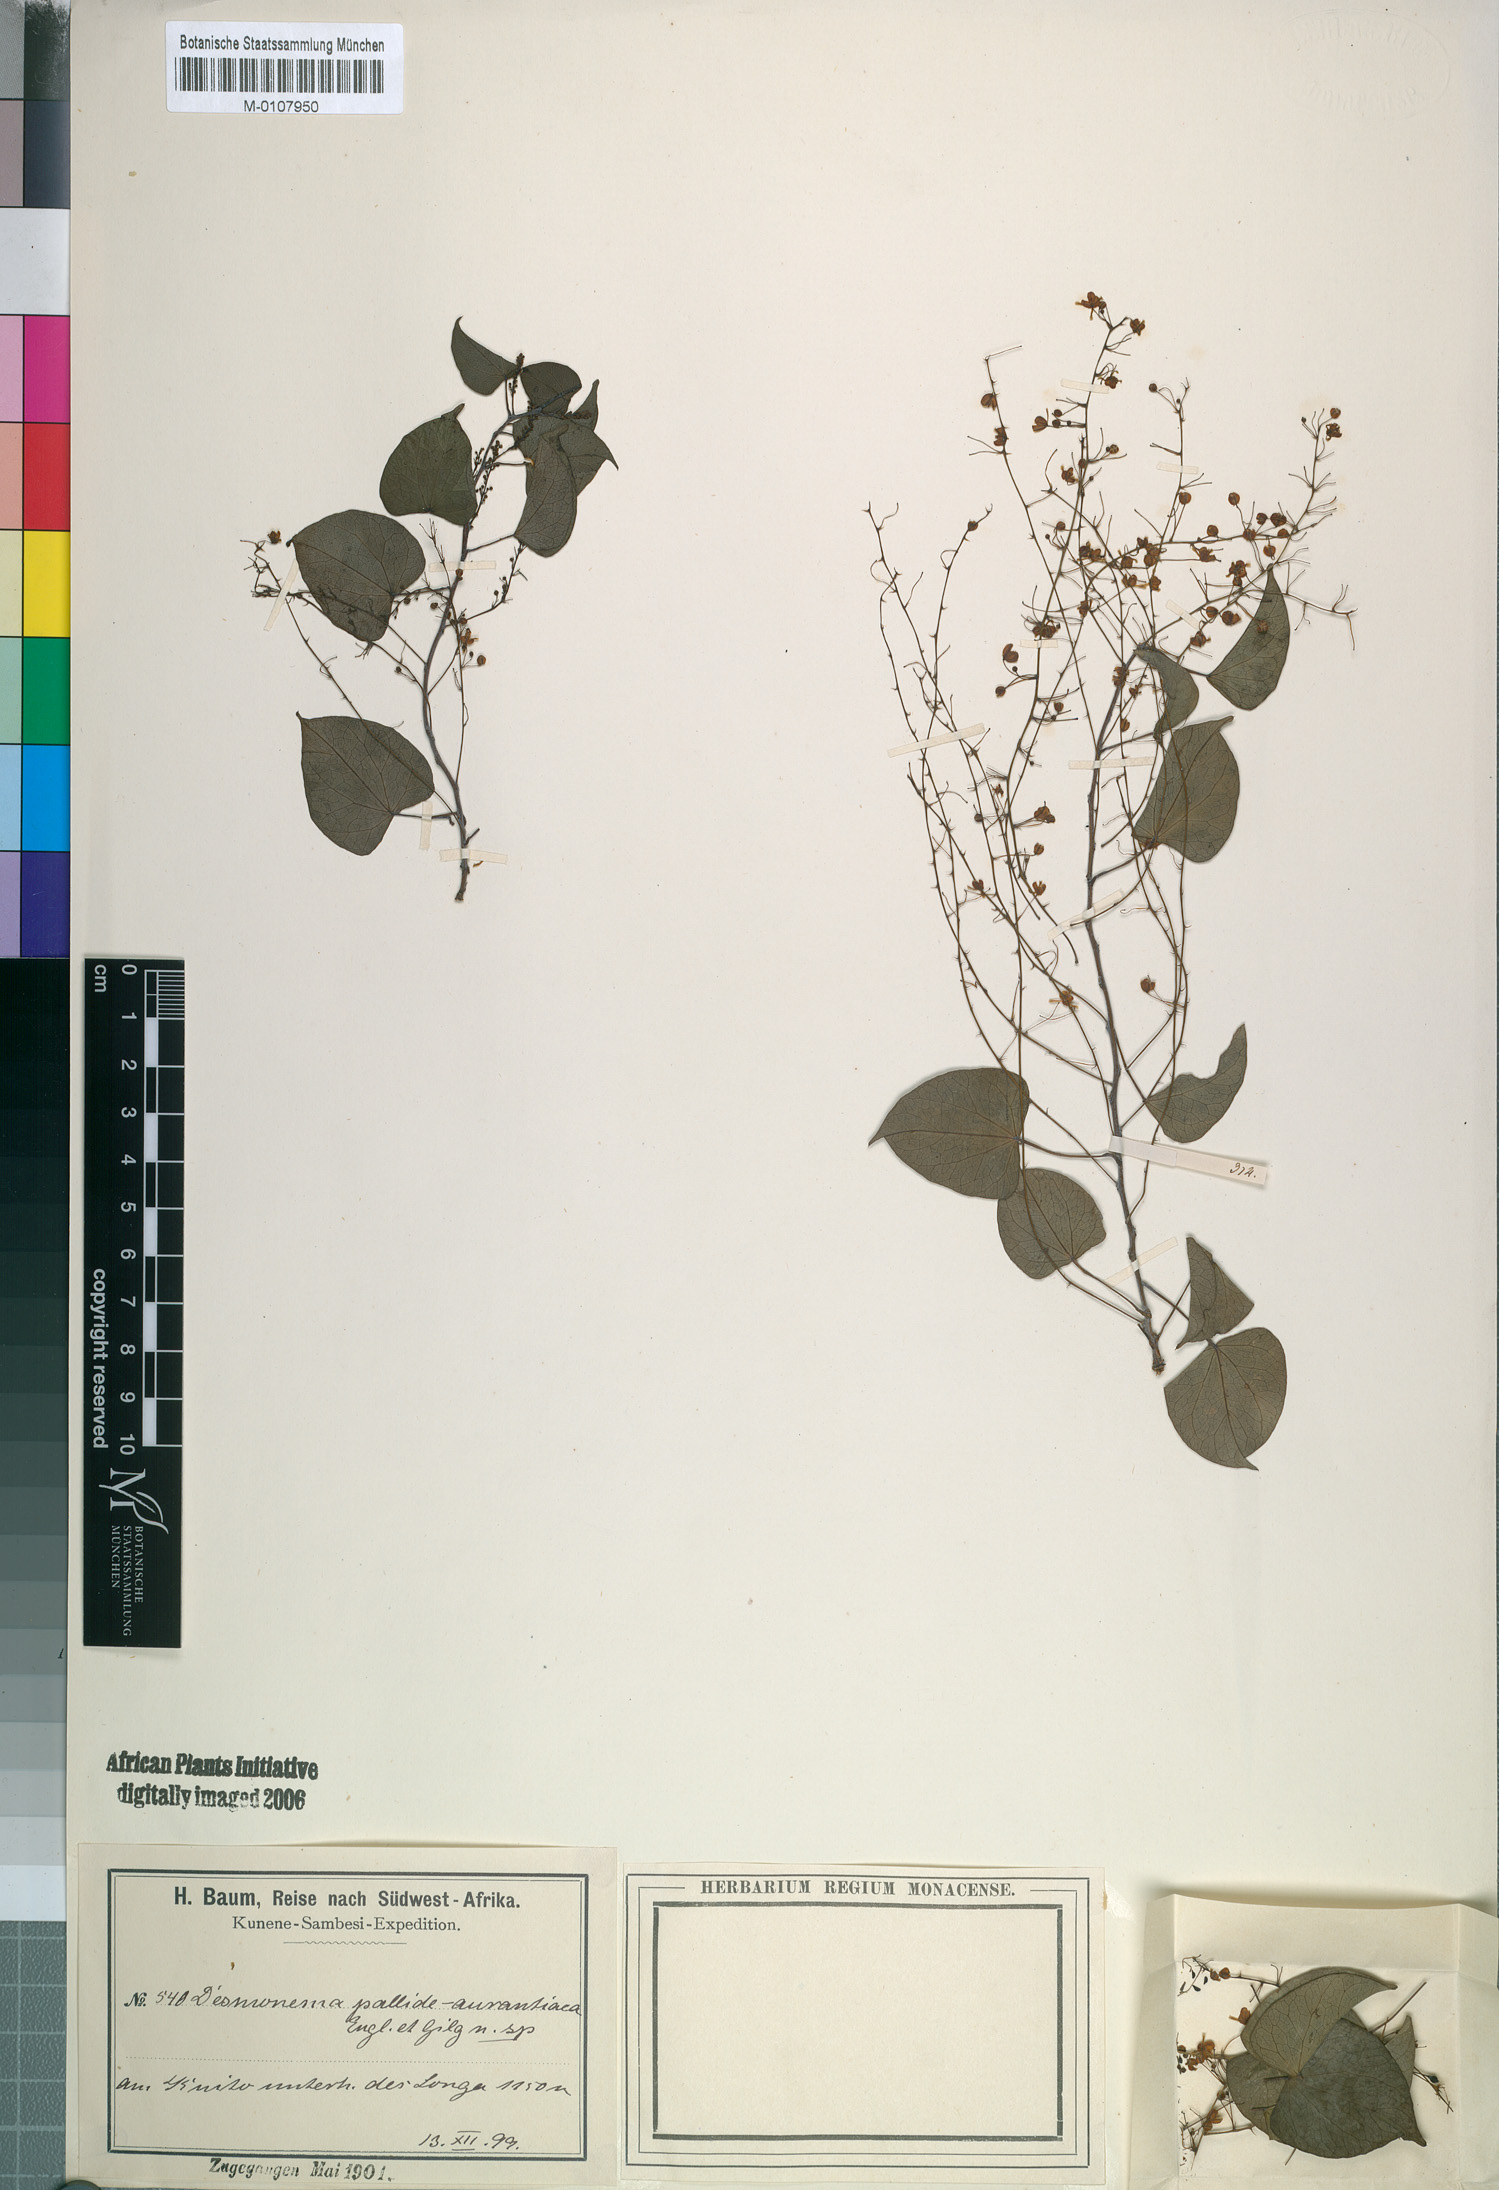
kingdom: Plantae
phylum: Tracheophyta
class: Magnoliopsida
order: Ranunculales
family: Menispermaceae
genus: Tinospora
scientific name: Tinospora caffra
